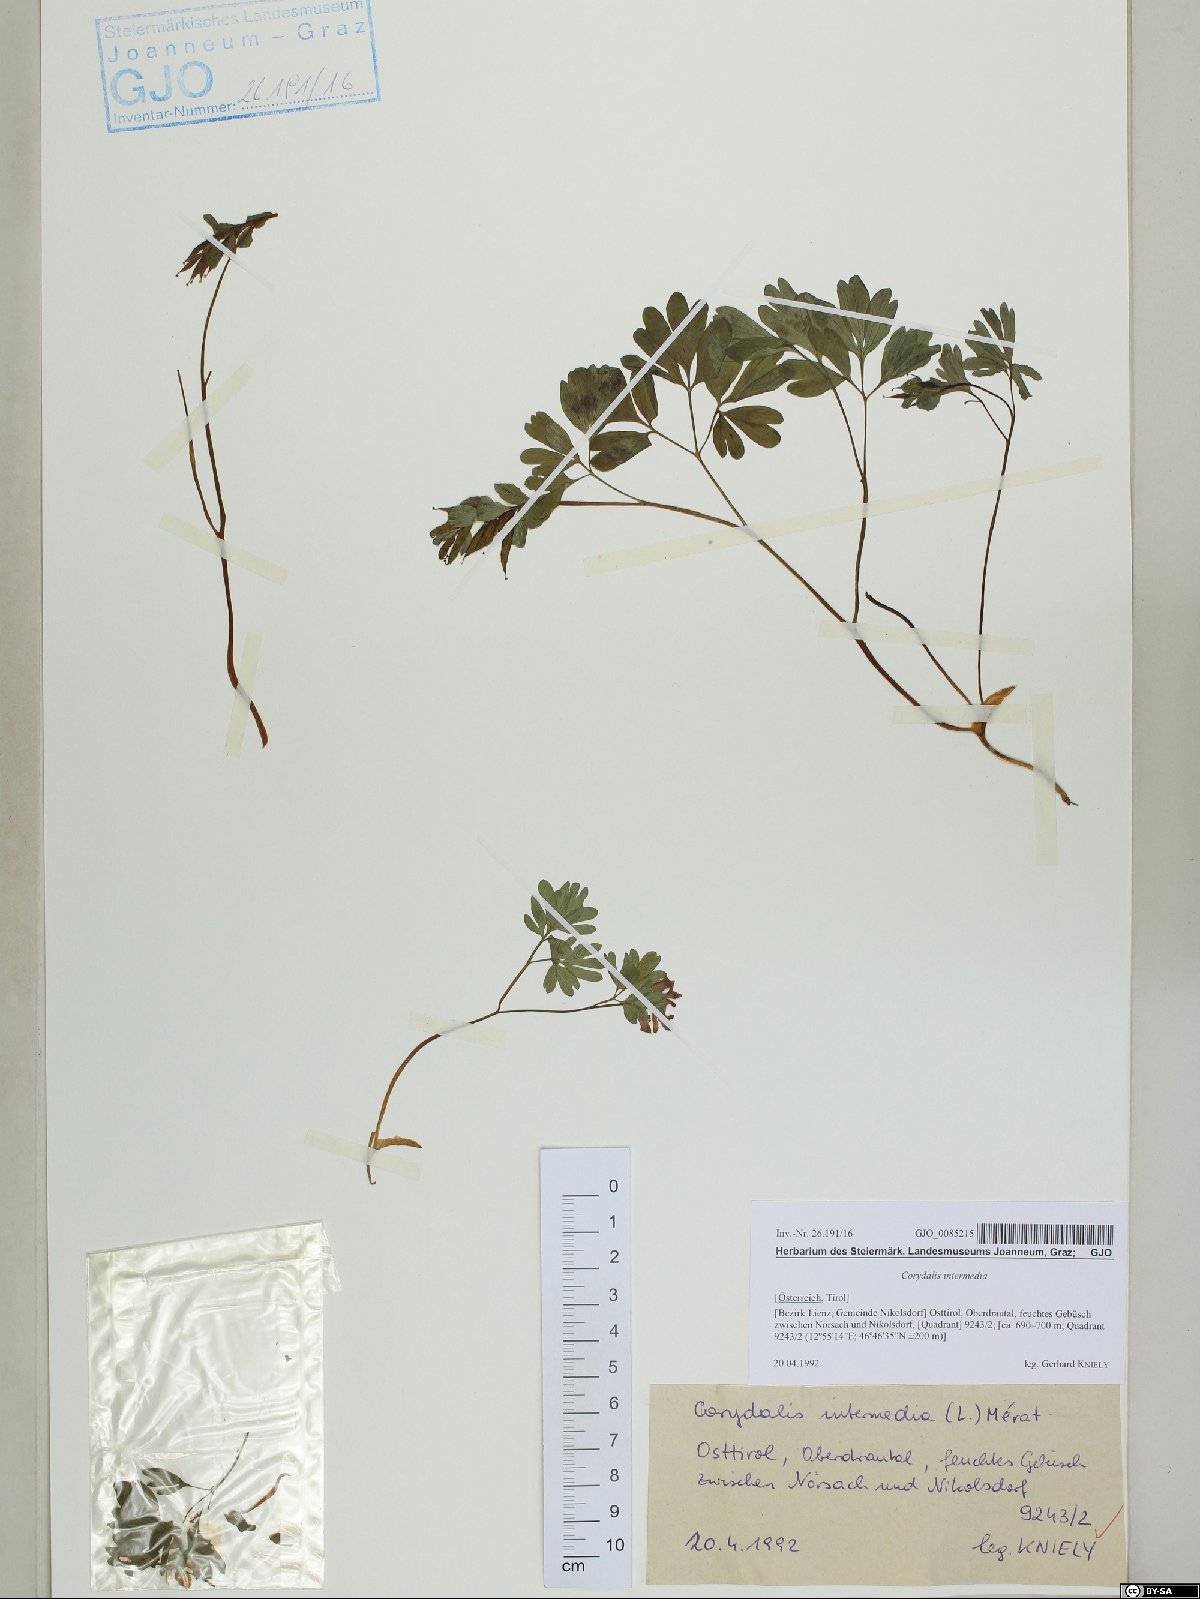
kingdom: Plantae
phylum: Tracheophyta
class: Magnoliopsida
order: Ranunculales
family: Papaveraceae
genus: Corydalis
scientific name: Corydalis intermedia
